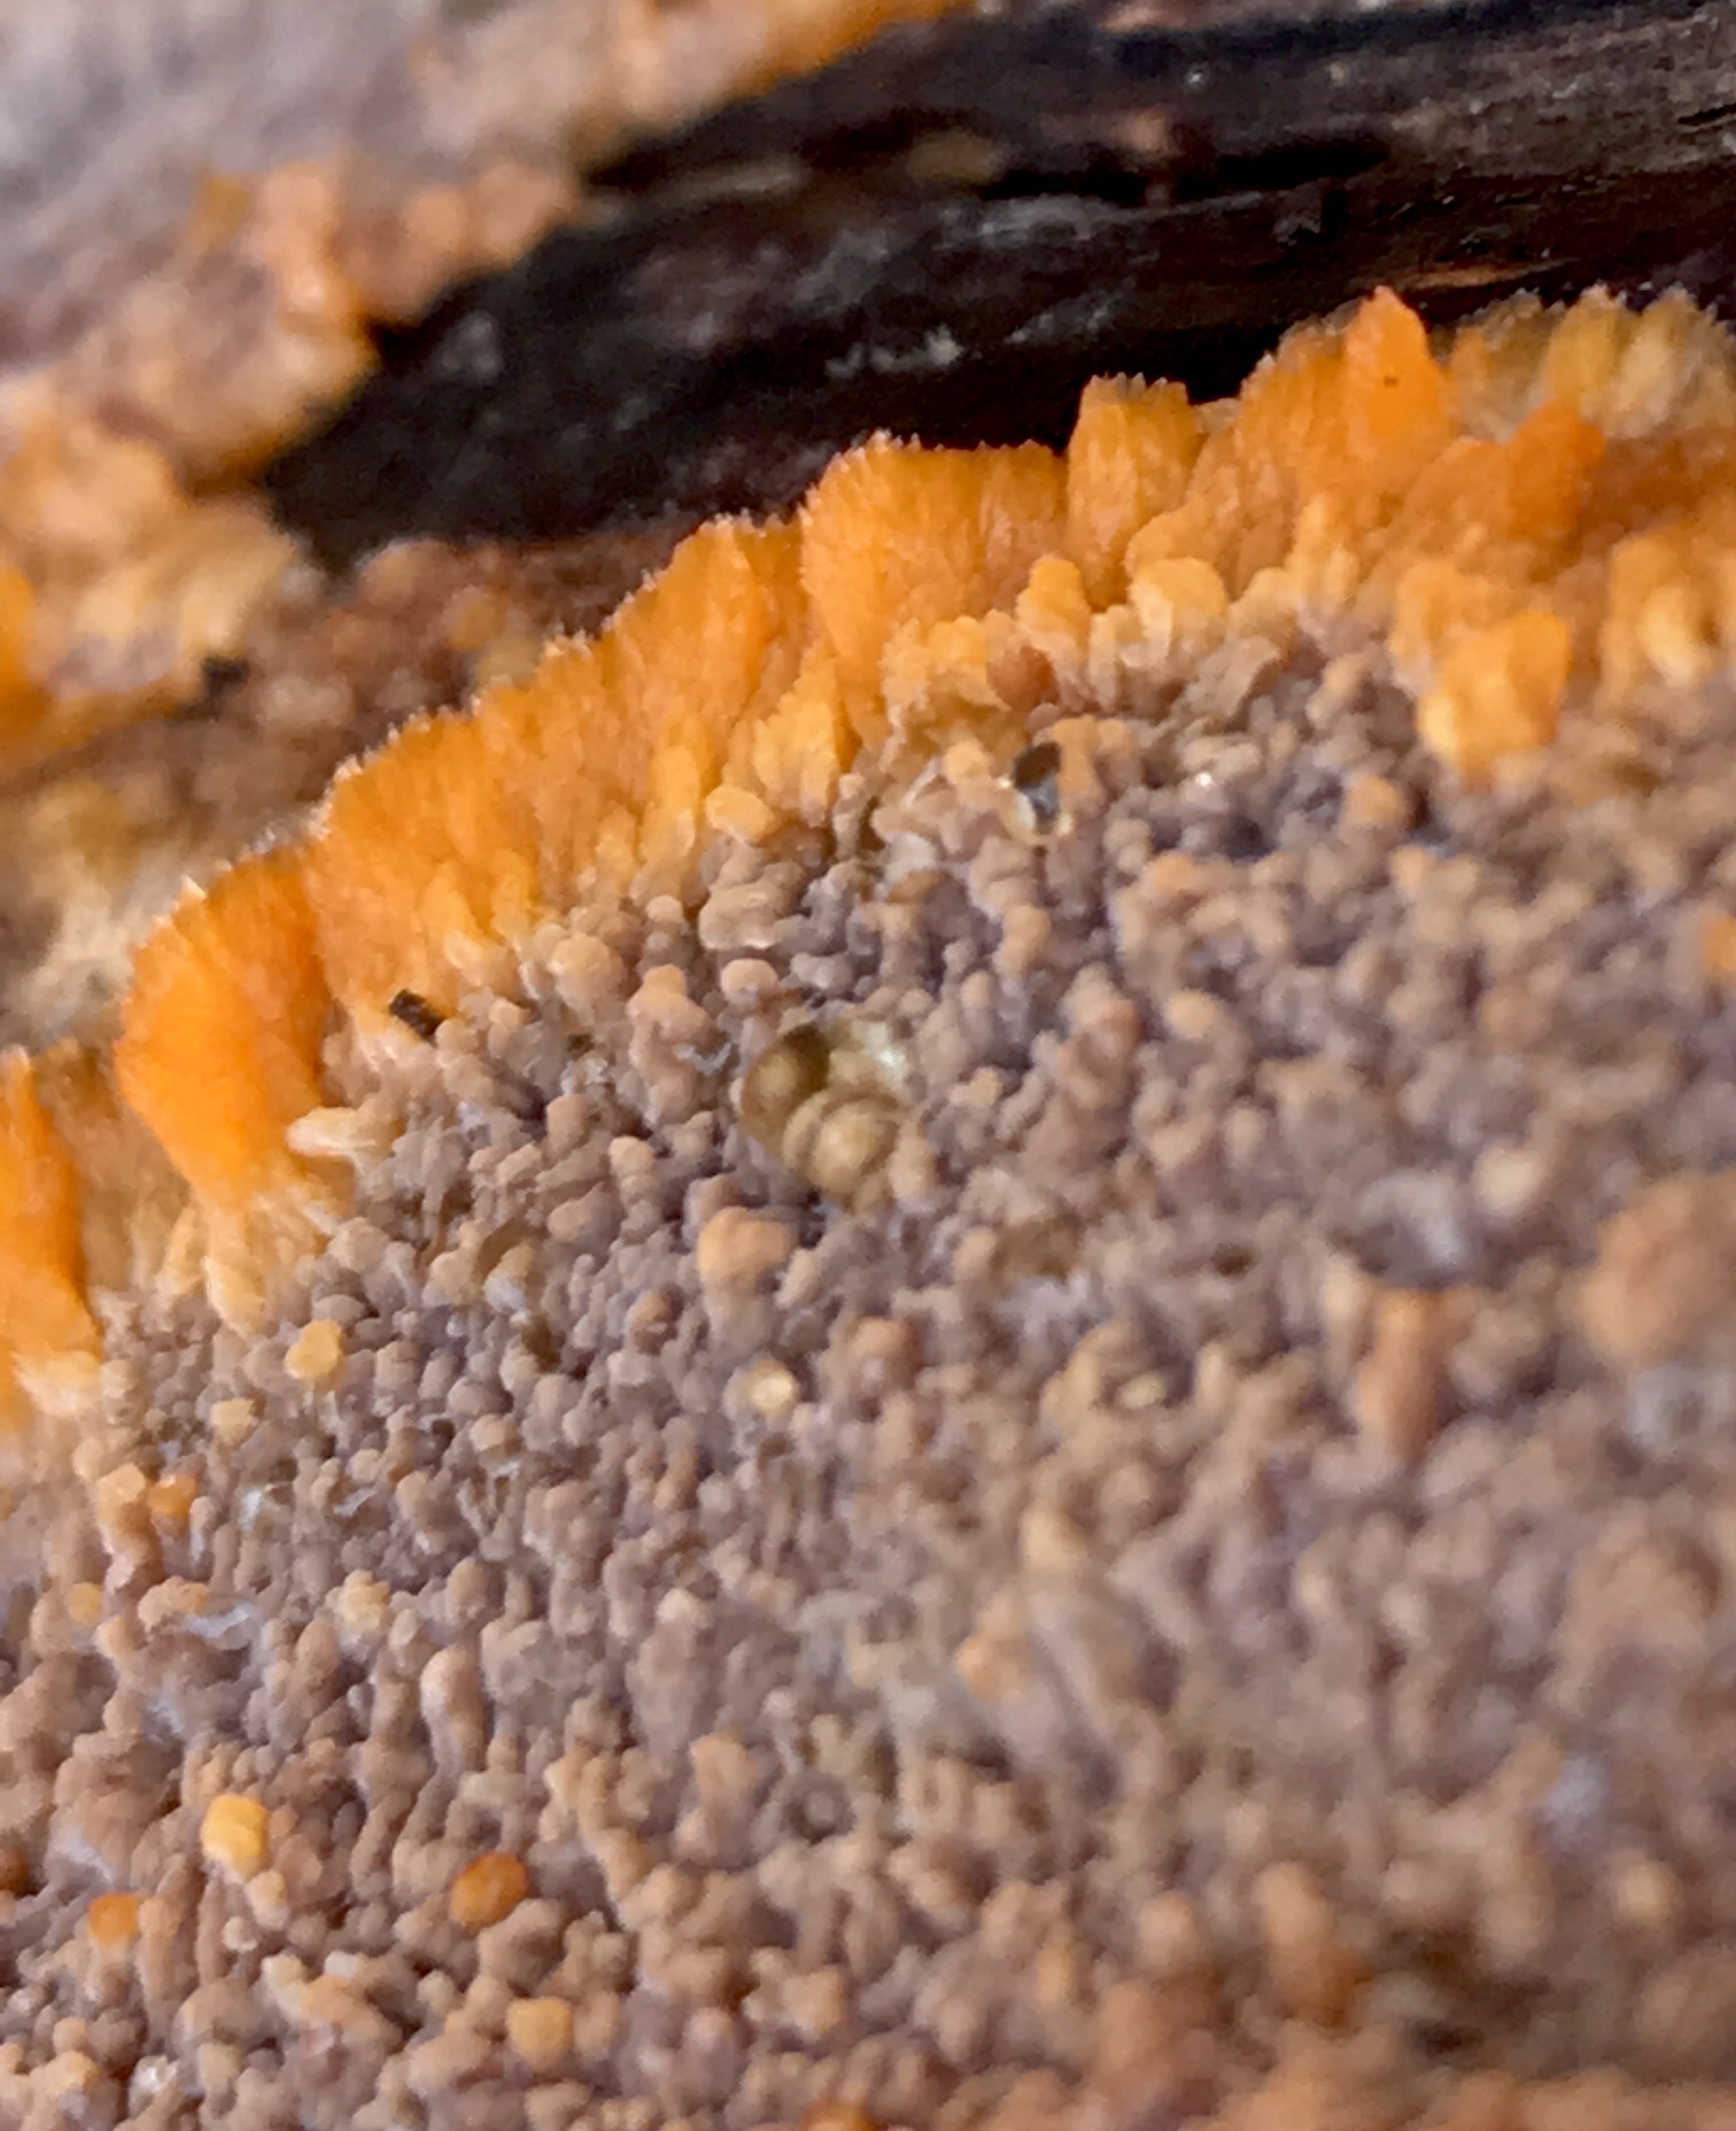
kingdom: Fungi
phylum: Basidiomycota
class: Agaricomycetes
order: Polyporales
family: Meruliaceae
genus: Phlebia
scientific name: Phlebia radiata
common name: stråle-åresvamp
